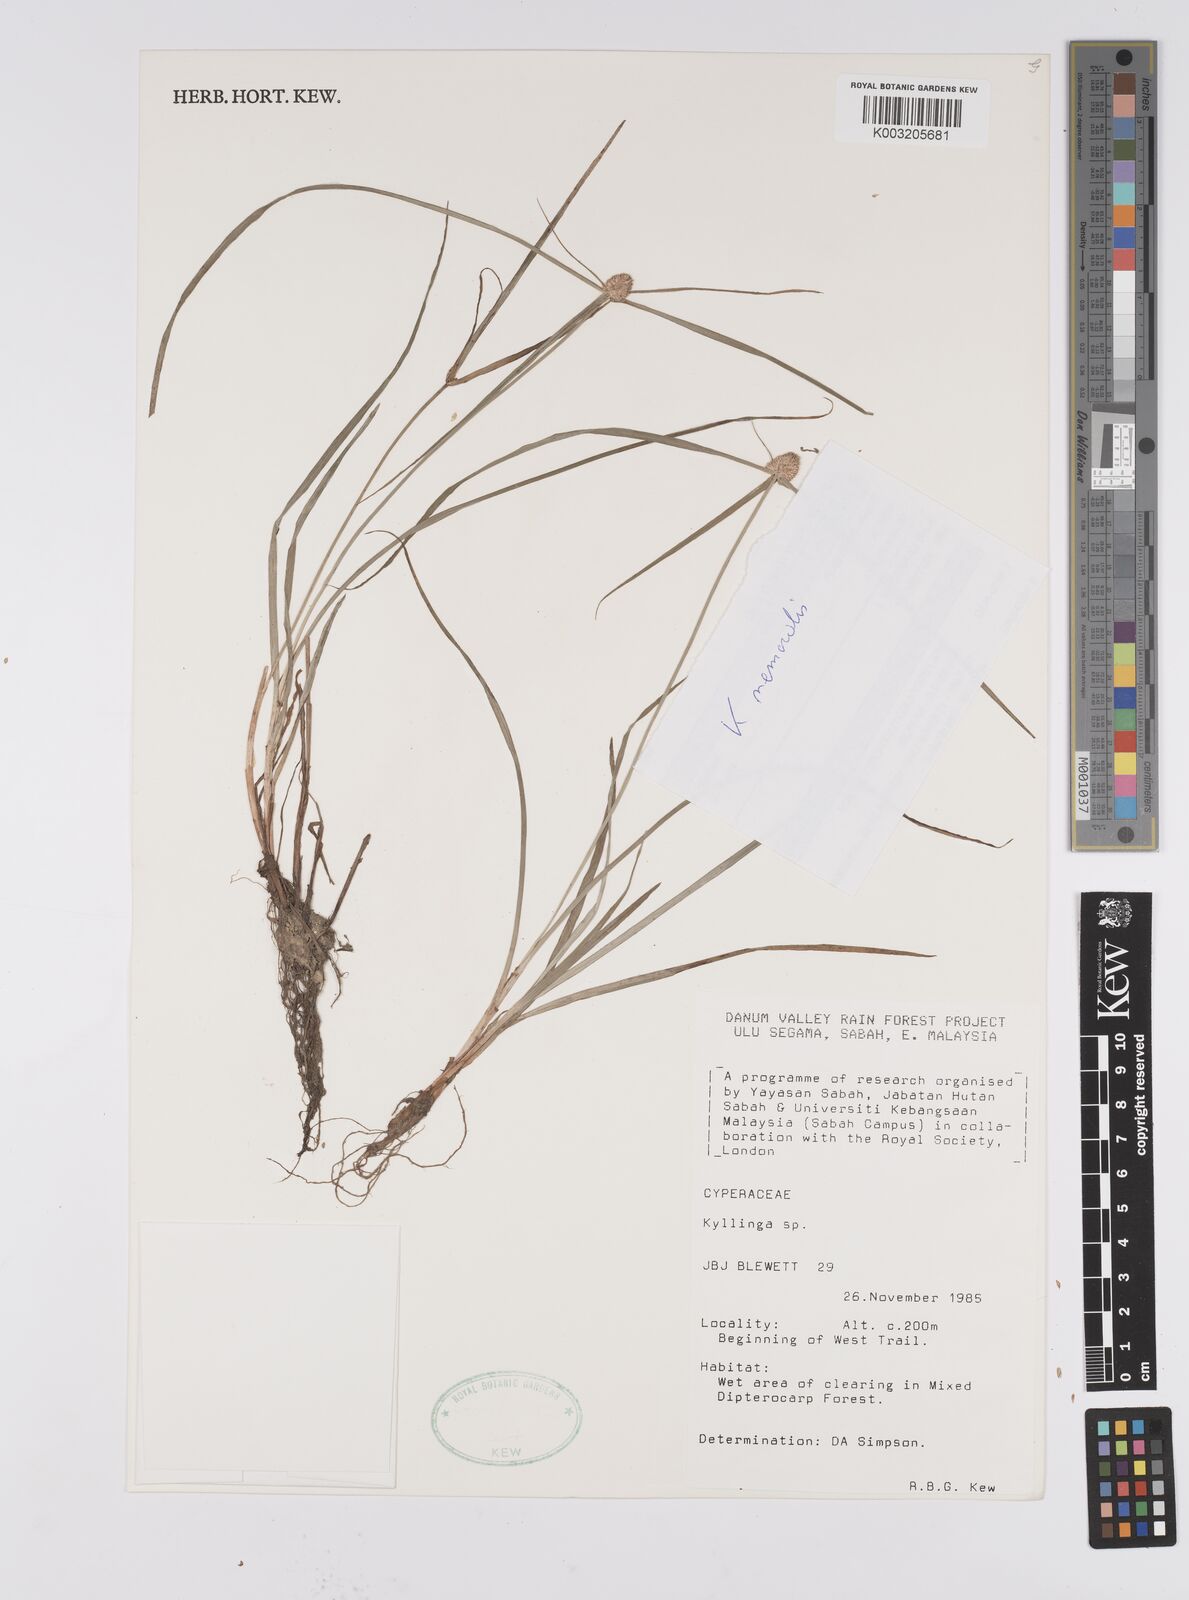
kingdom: Plantae
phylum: Tracheophyta
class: Liliopsida
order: Poales
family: Cyperaceae
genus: Cyperus
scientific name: Cyperus nemoralis
